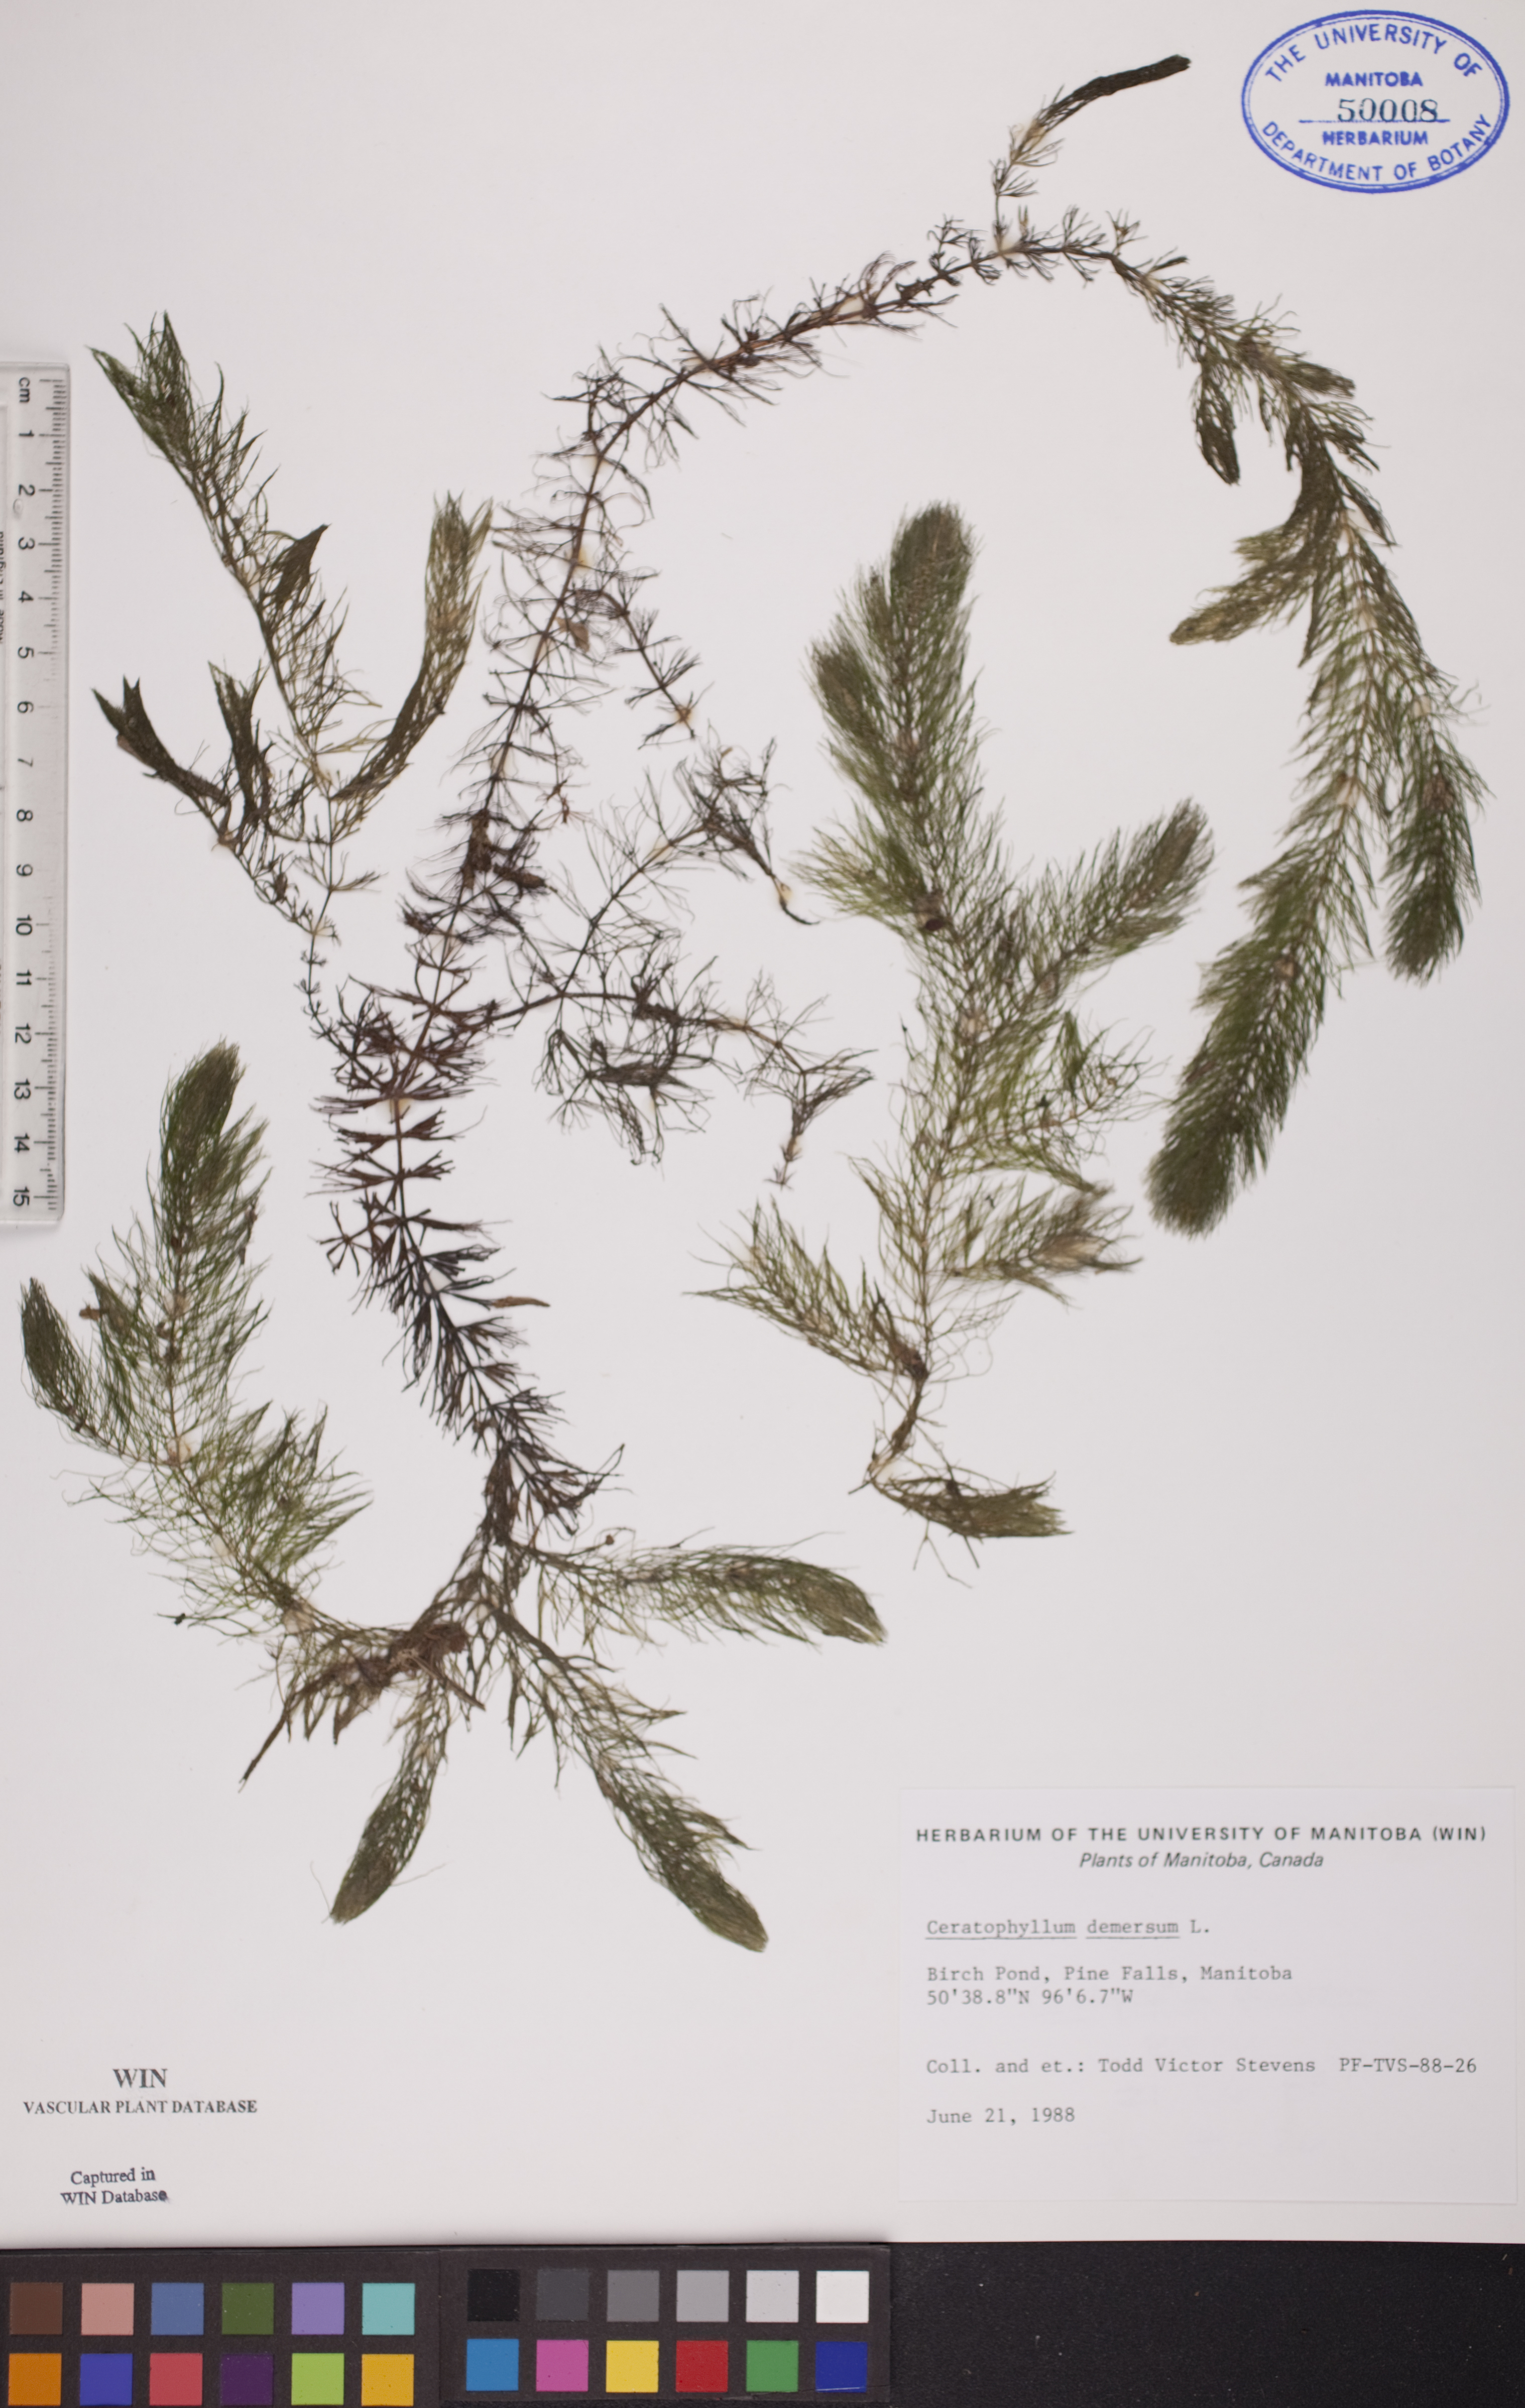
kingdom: Plantae
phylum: Tracheophyta
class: Magnoliopsida
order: Ceratophyllales
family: Ceratophyllaceae
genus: Ceratophyllum
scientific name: Ceratophyllum demersum
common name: Rigid hornwort
